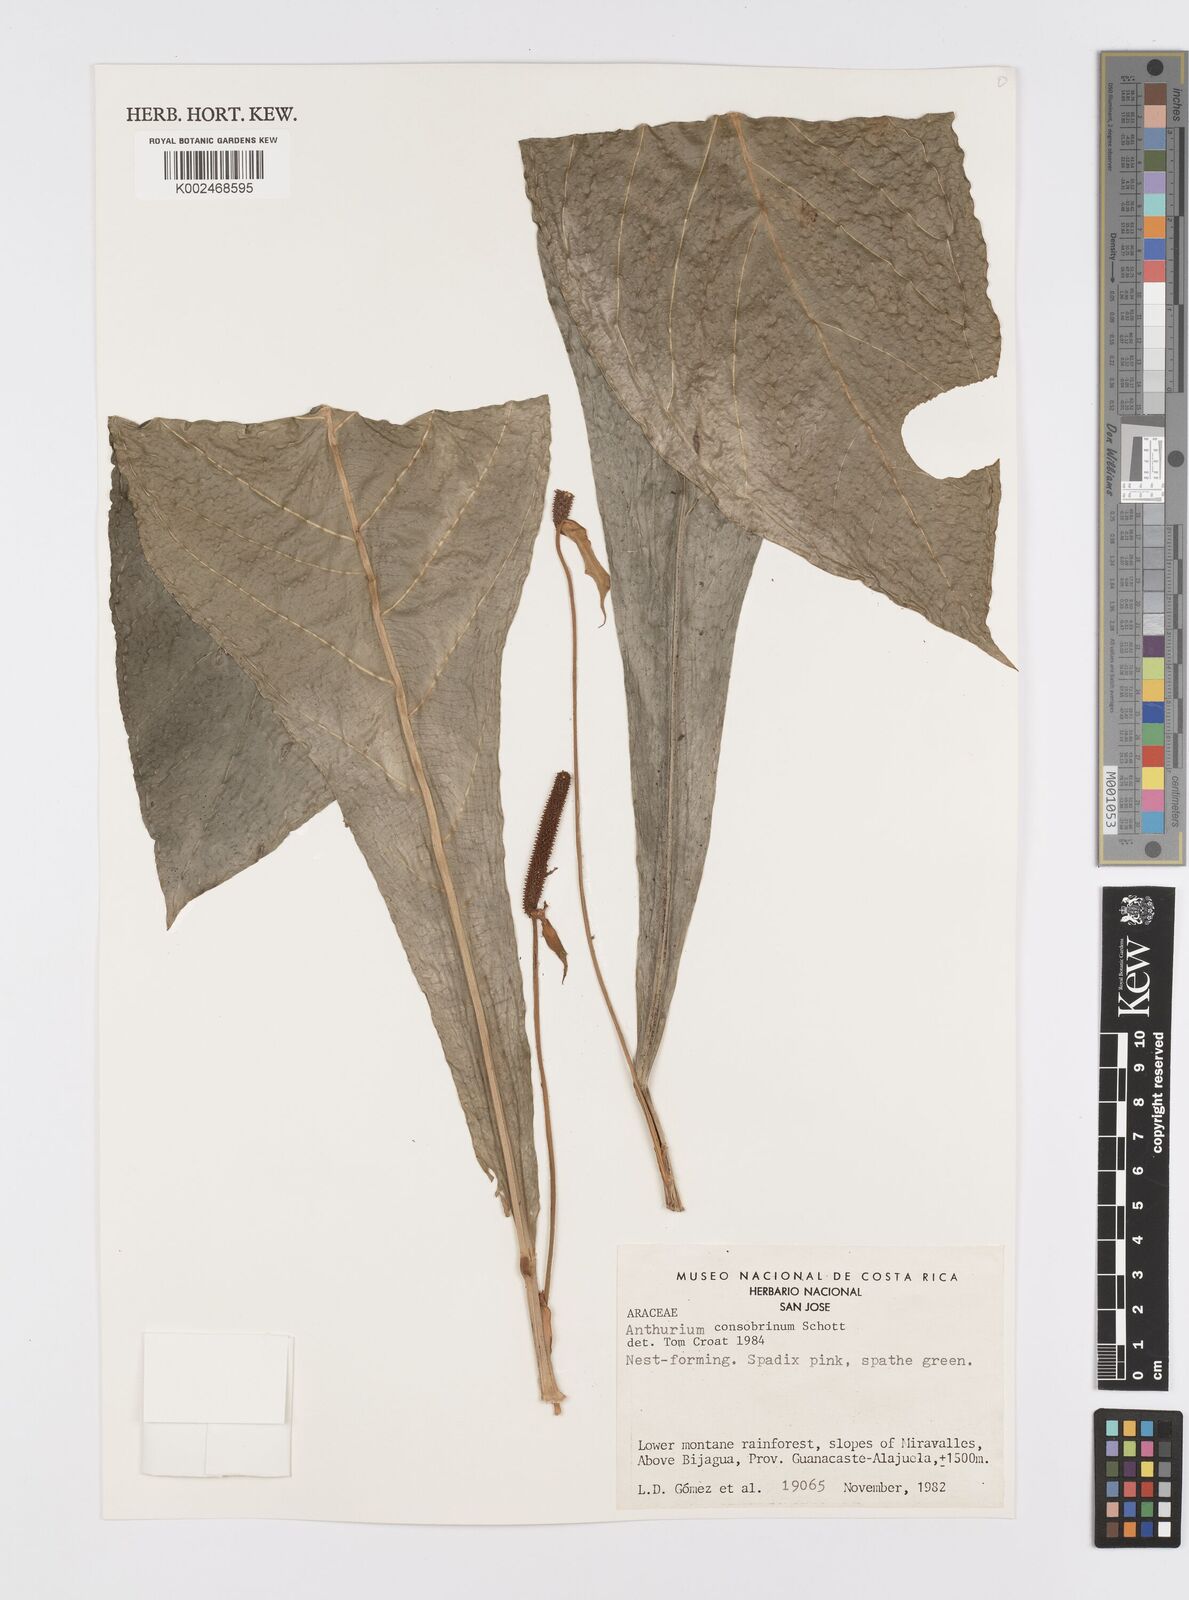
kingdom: Plantae
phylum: Tracheophyta
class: Liliopsida
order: Alismatales
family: Araceae
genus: Anthurium
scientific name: Anthurium consobrinum
